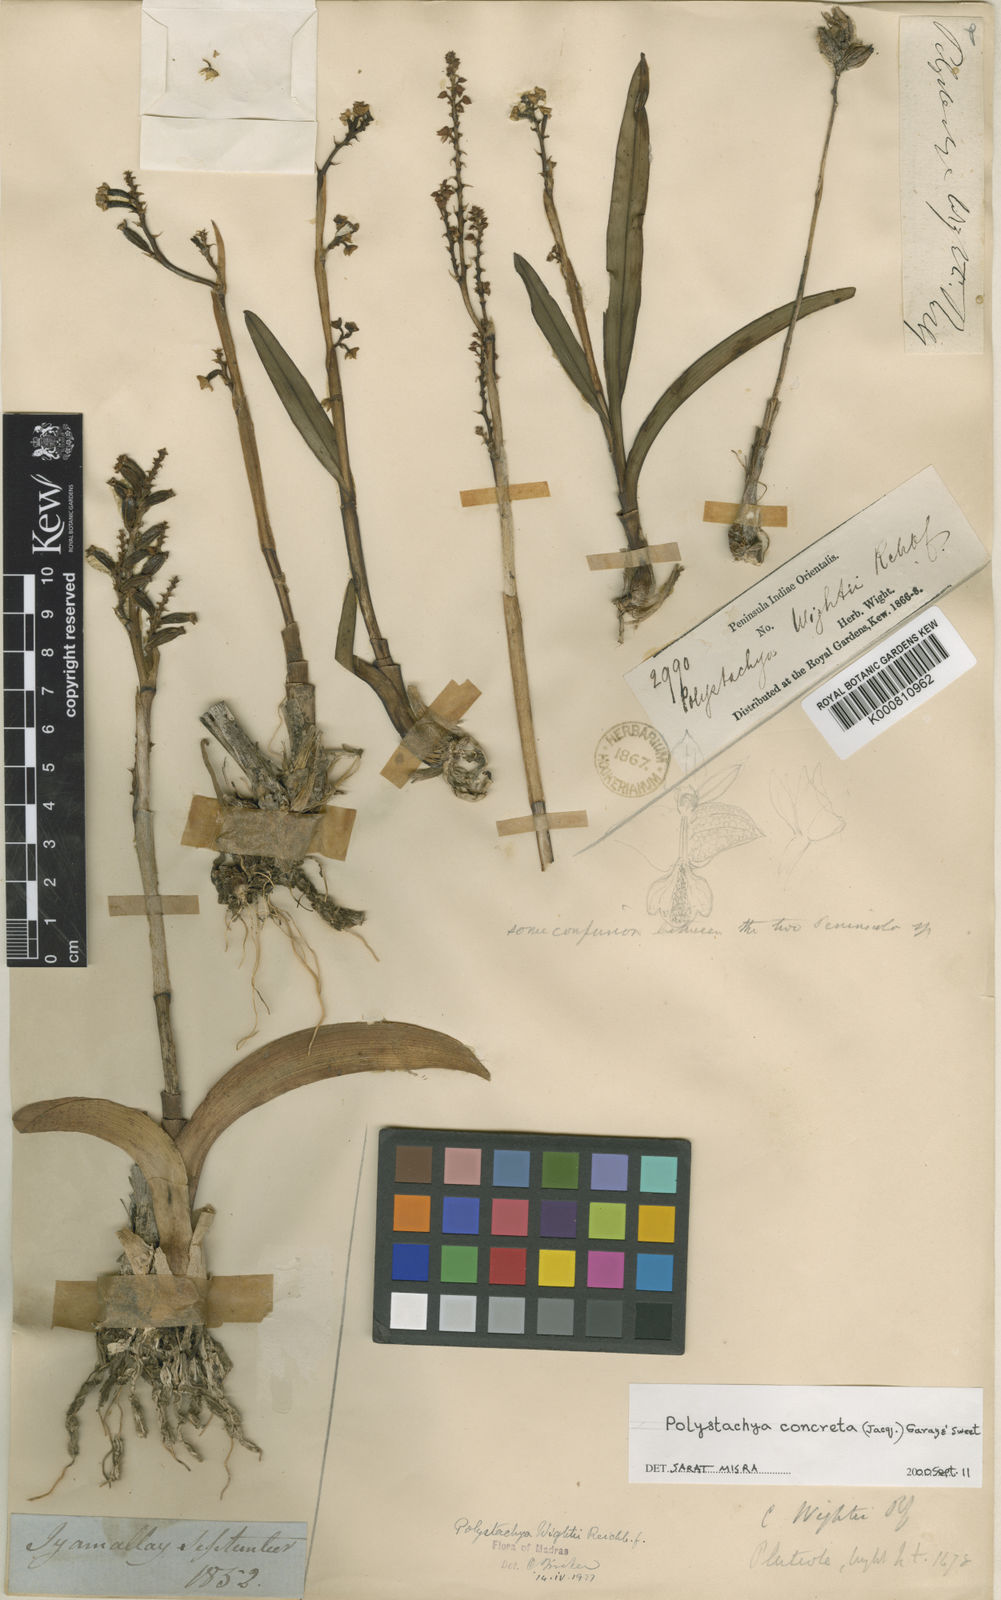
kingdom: Plantae
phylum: Tracheophyta
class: Liliopsida
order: Asparagales
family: Orchidaceae
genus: Polystachya
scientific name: Polystachya concreta
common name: Greater yellowspike orchid
